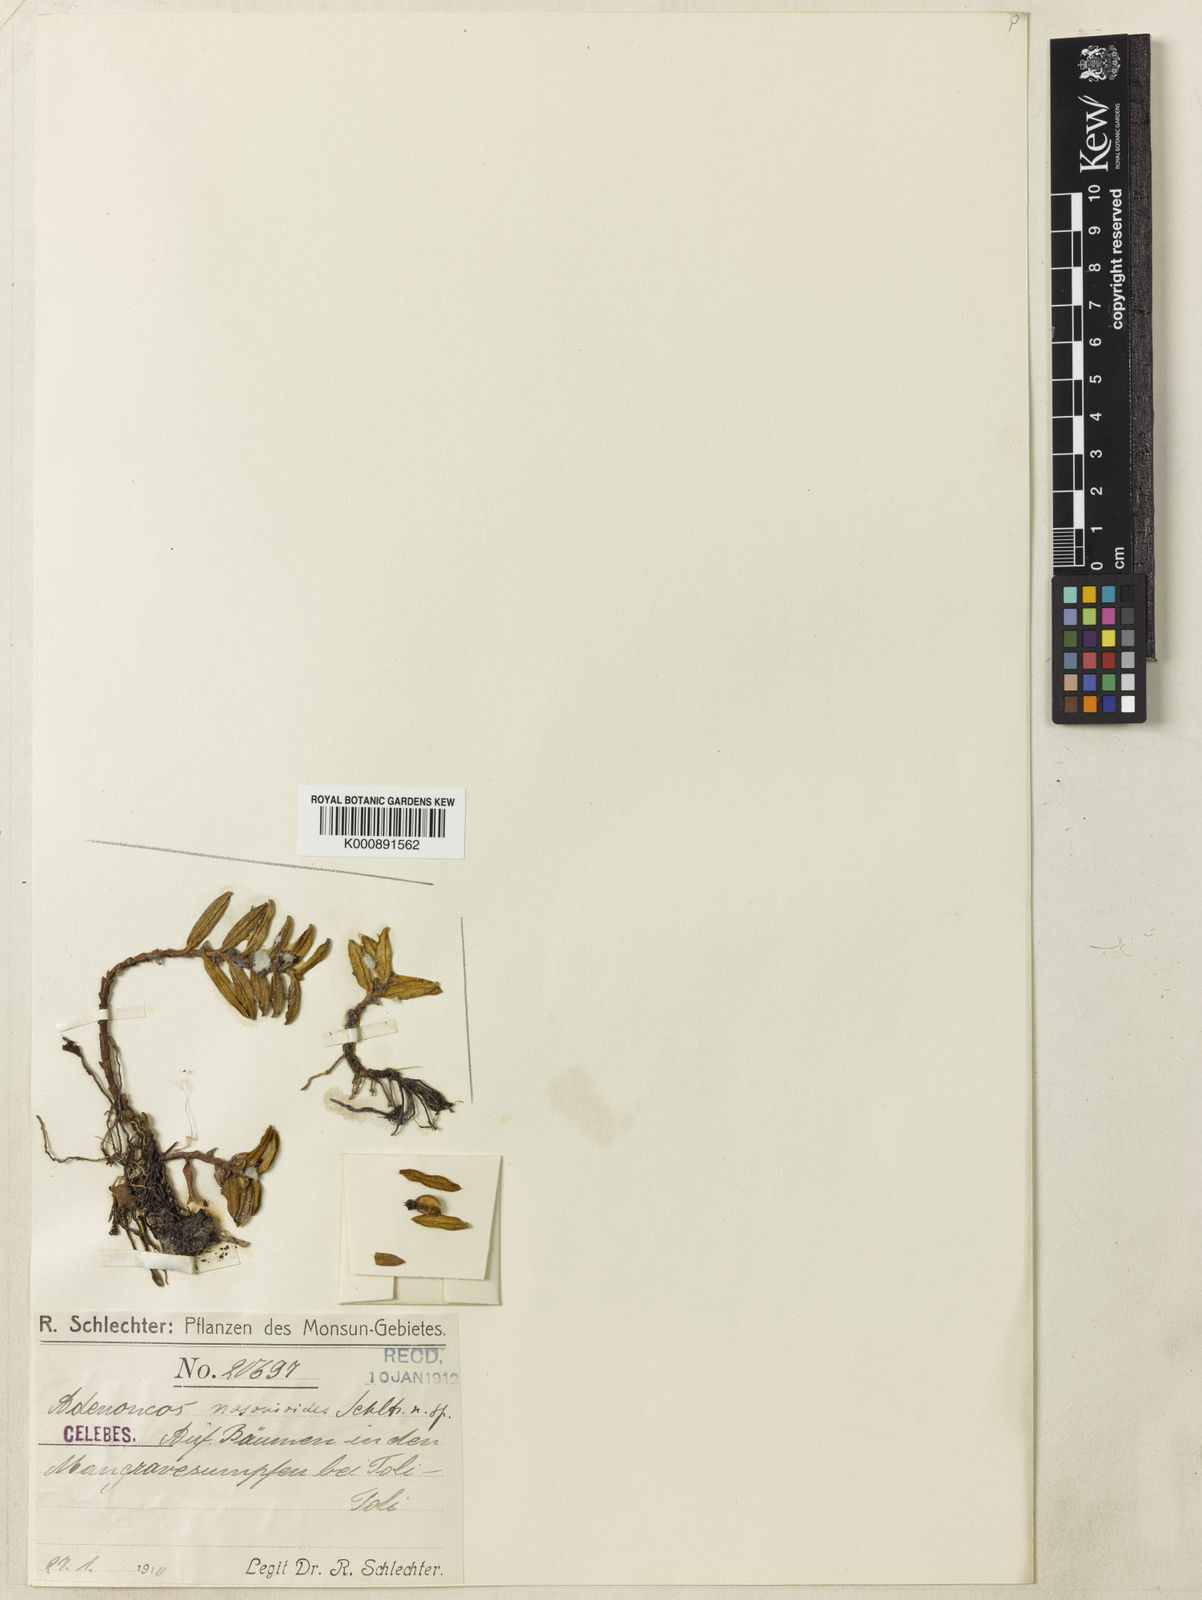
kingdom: Plantae
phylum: Tracheophyta
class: Liliopsida
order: Asparagales
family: Orchidaceae
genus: Adenoncos
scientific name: Adenoncos nasonioides
